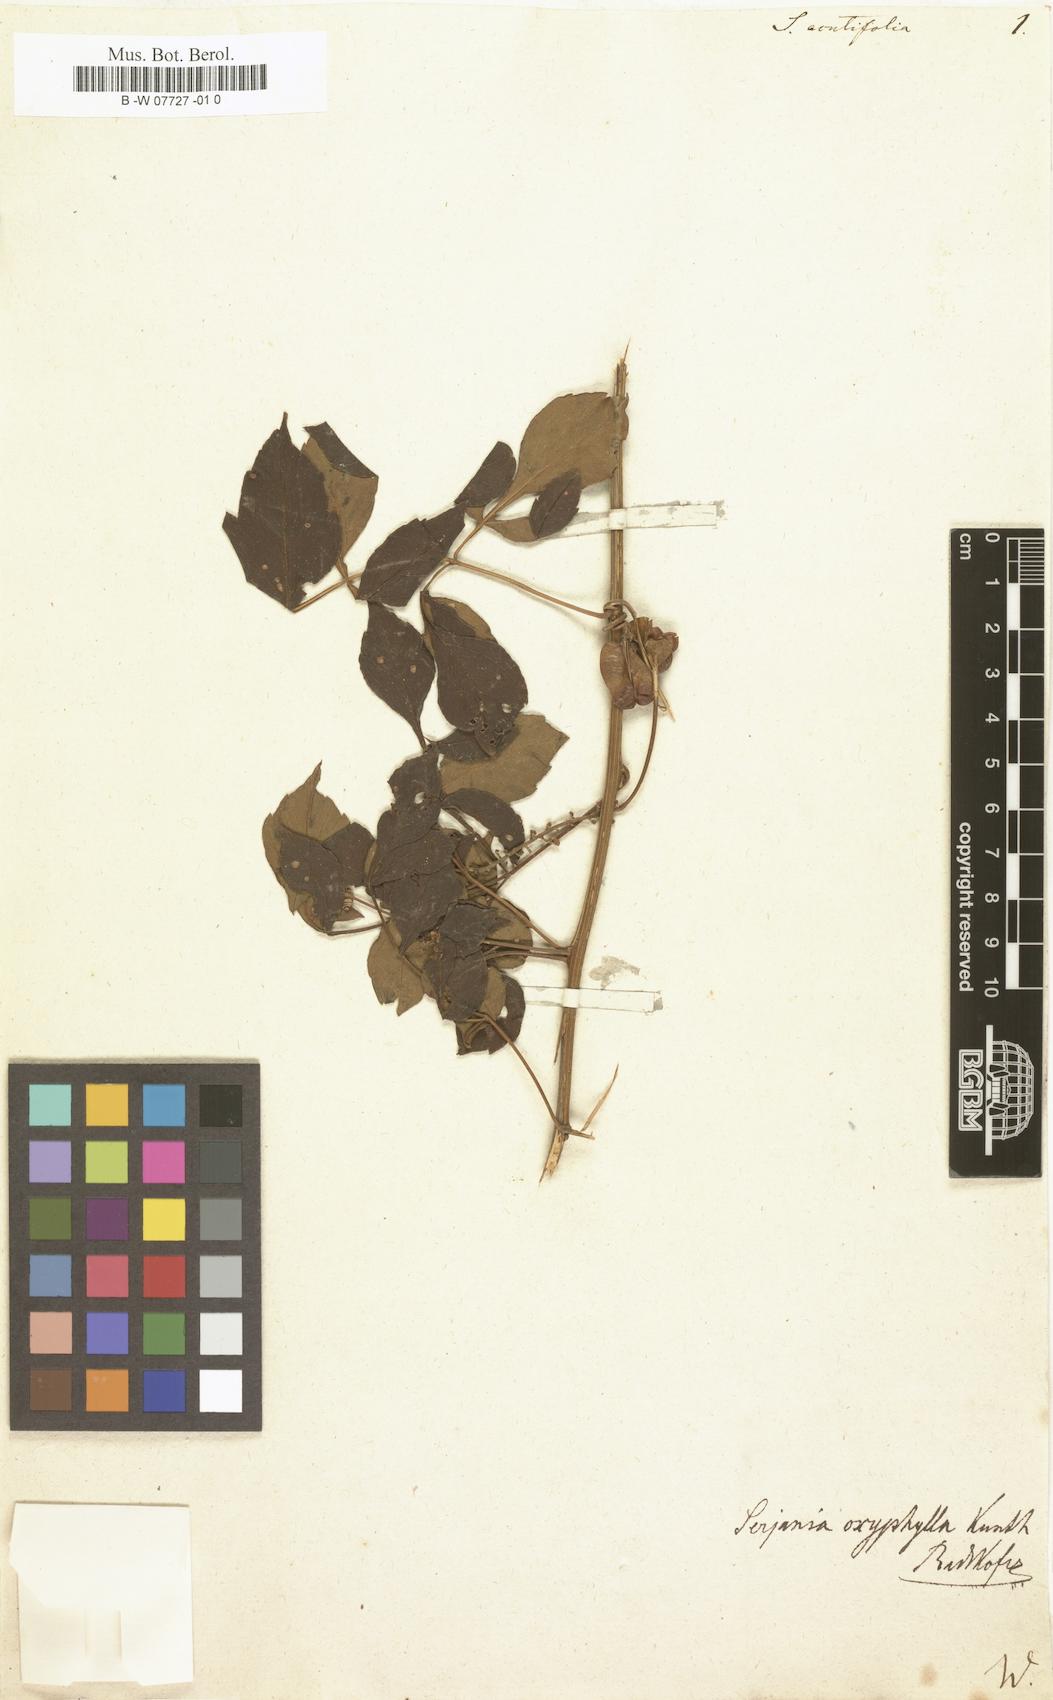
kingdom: Plantae
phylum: Tracheophyta
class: Magnoliopsida
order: Sapindales
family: Sapindaceae
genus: Serjania
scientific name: Serjania oxyphylla
